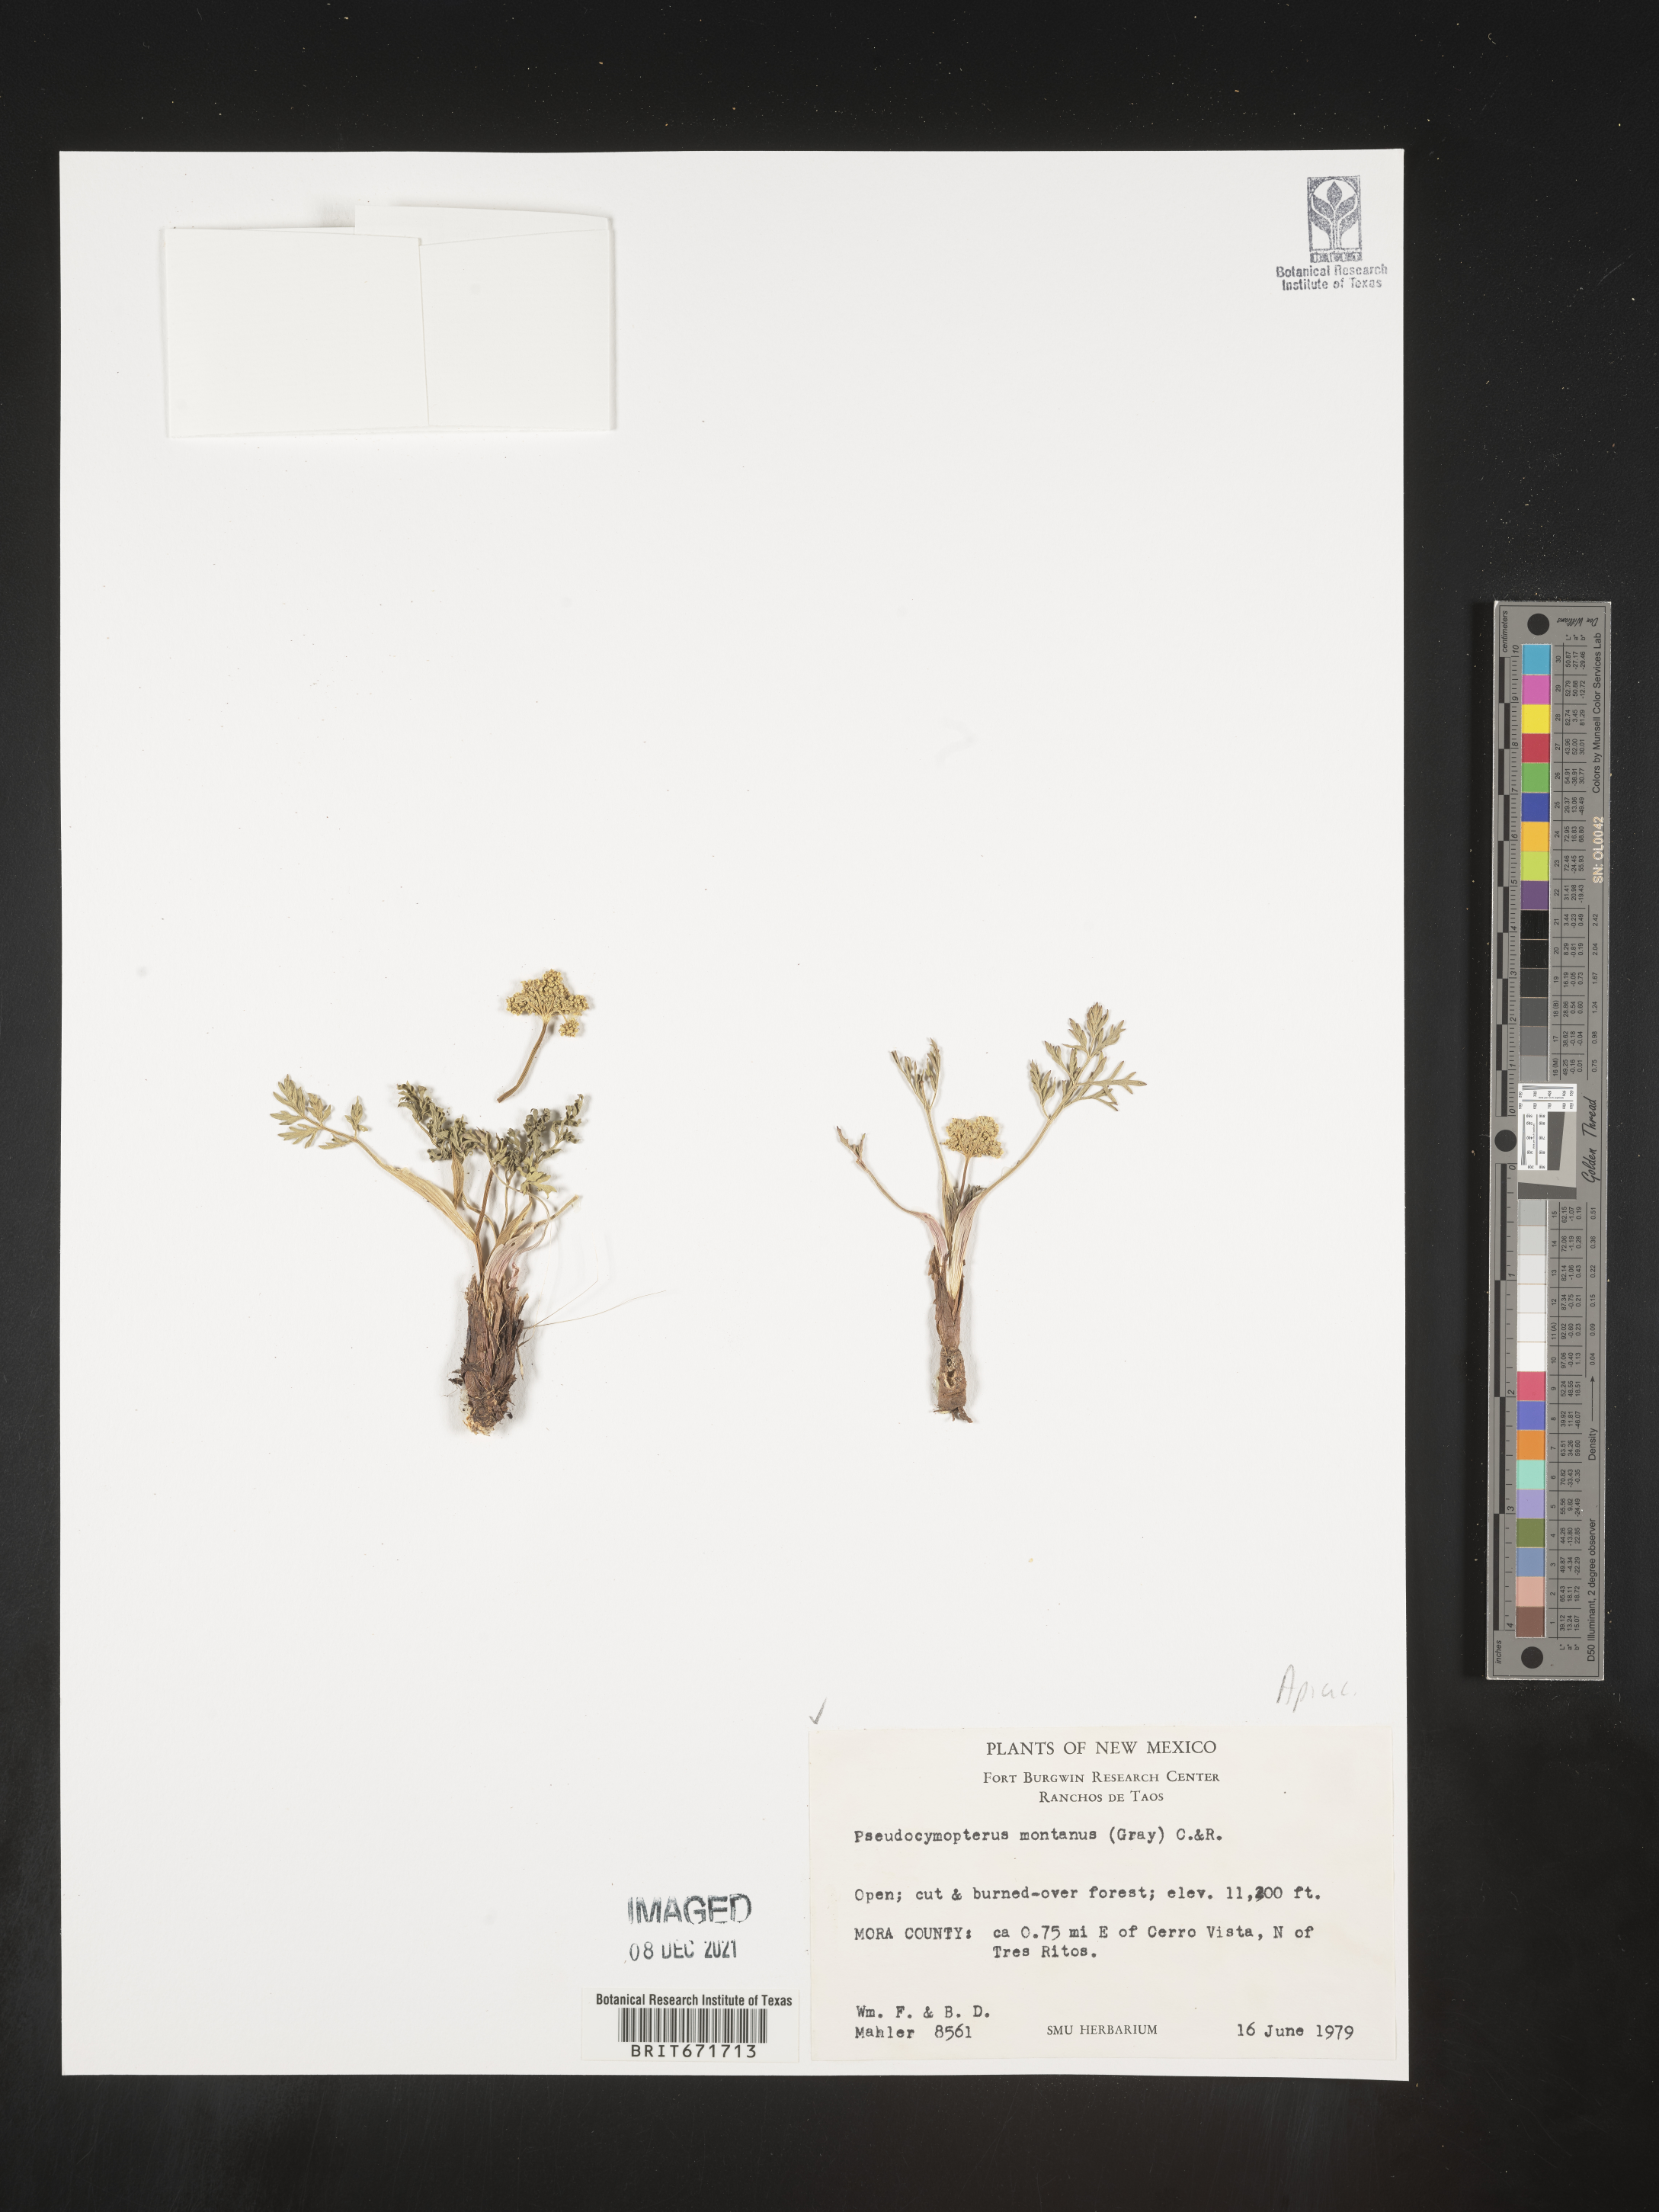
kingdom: Plantae
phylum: Tracheophyta
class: Magnoliopsida
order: Apiales
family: Apiaceae
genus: Cymopterus
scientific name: Cymopterus lemmonii
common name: Lemmon's spring-parsley
